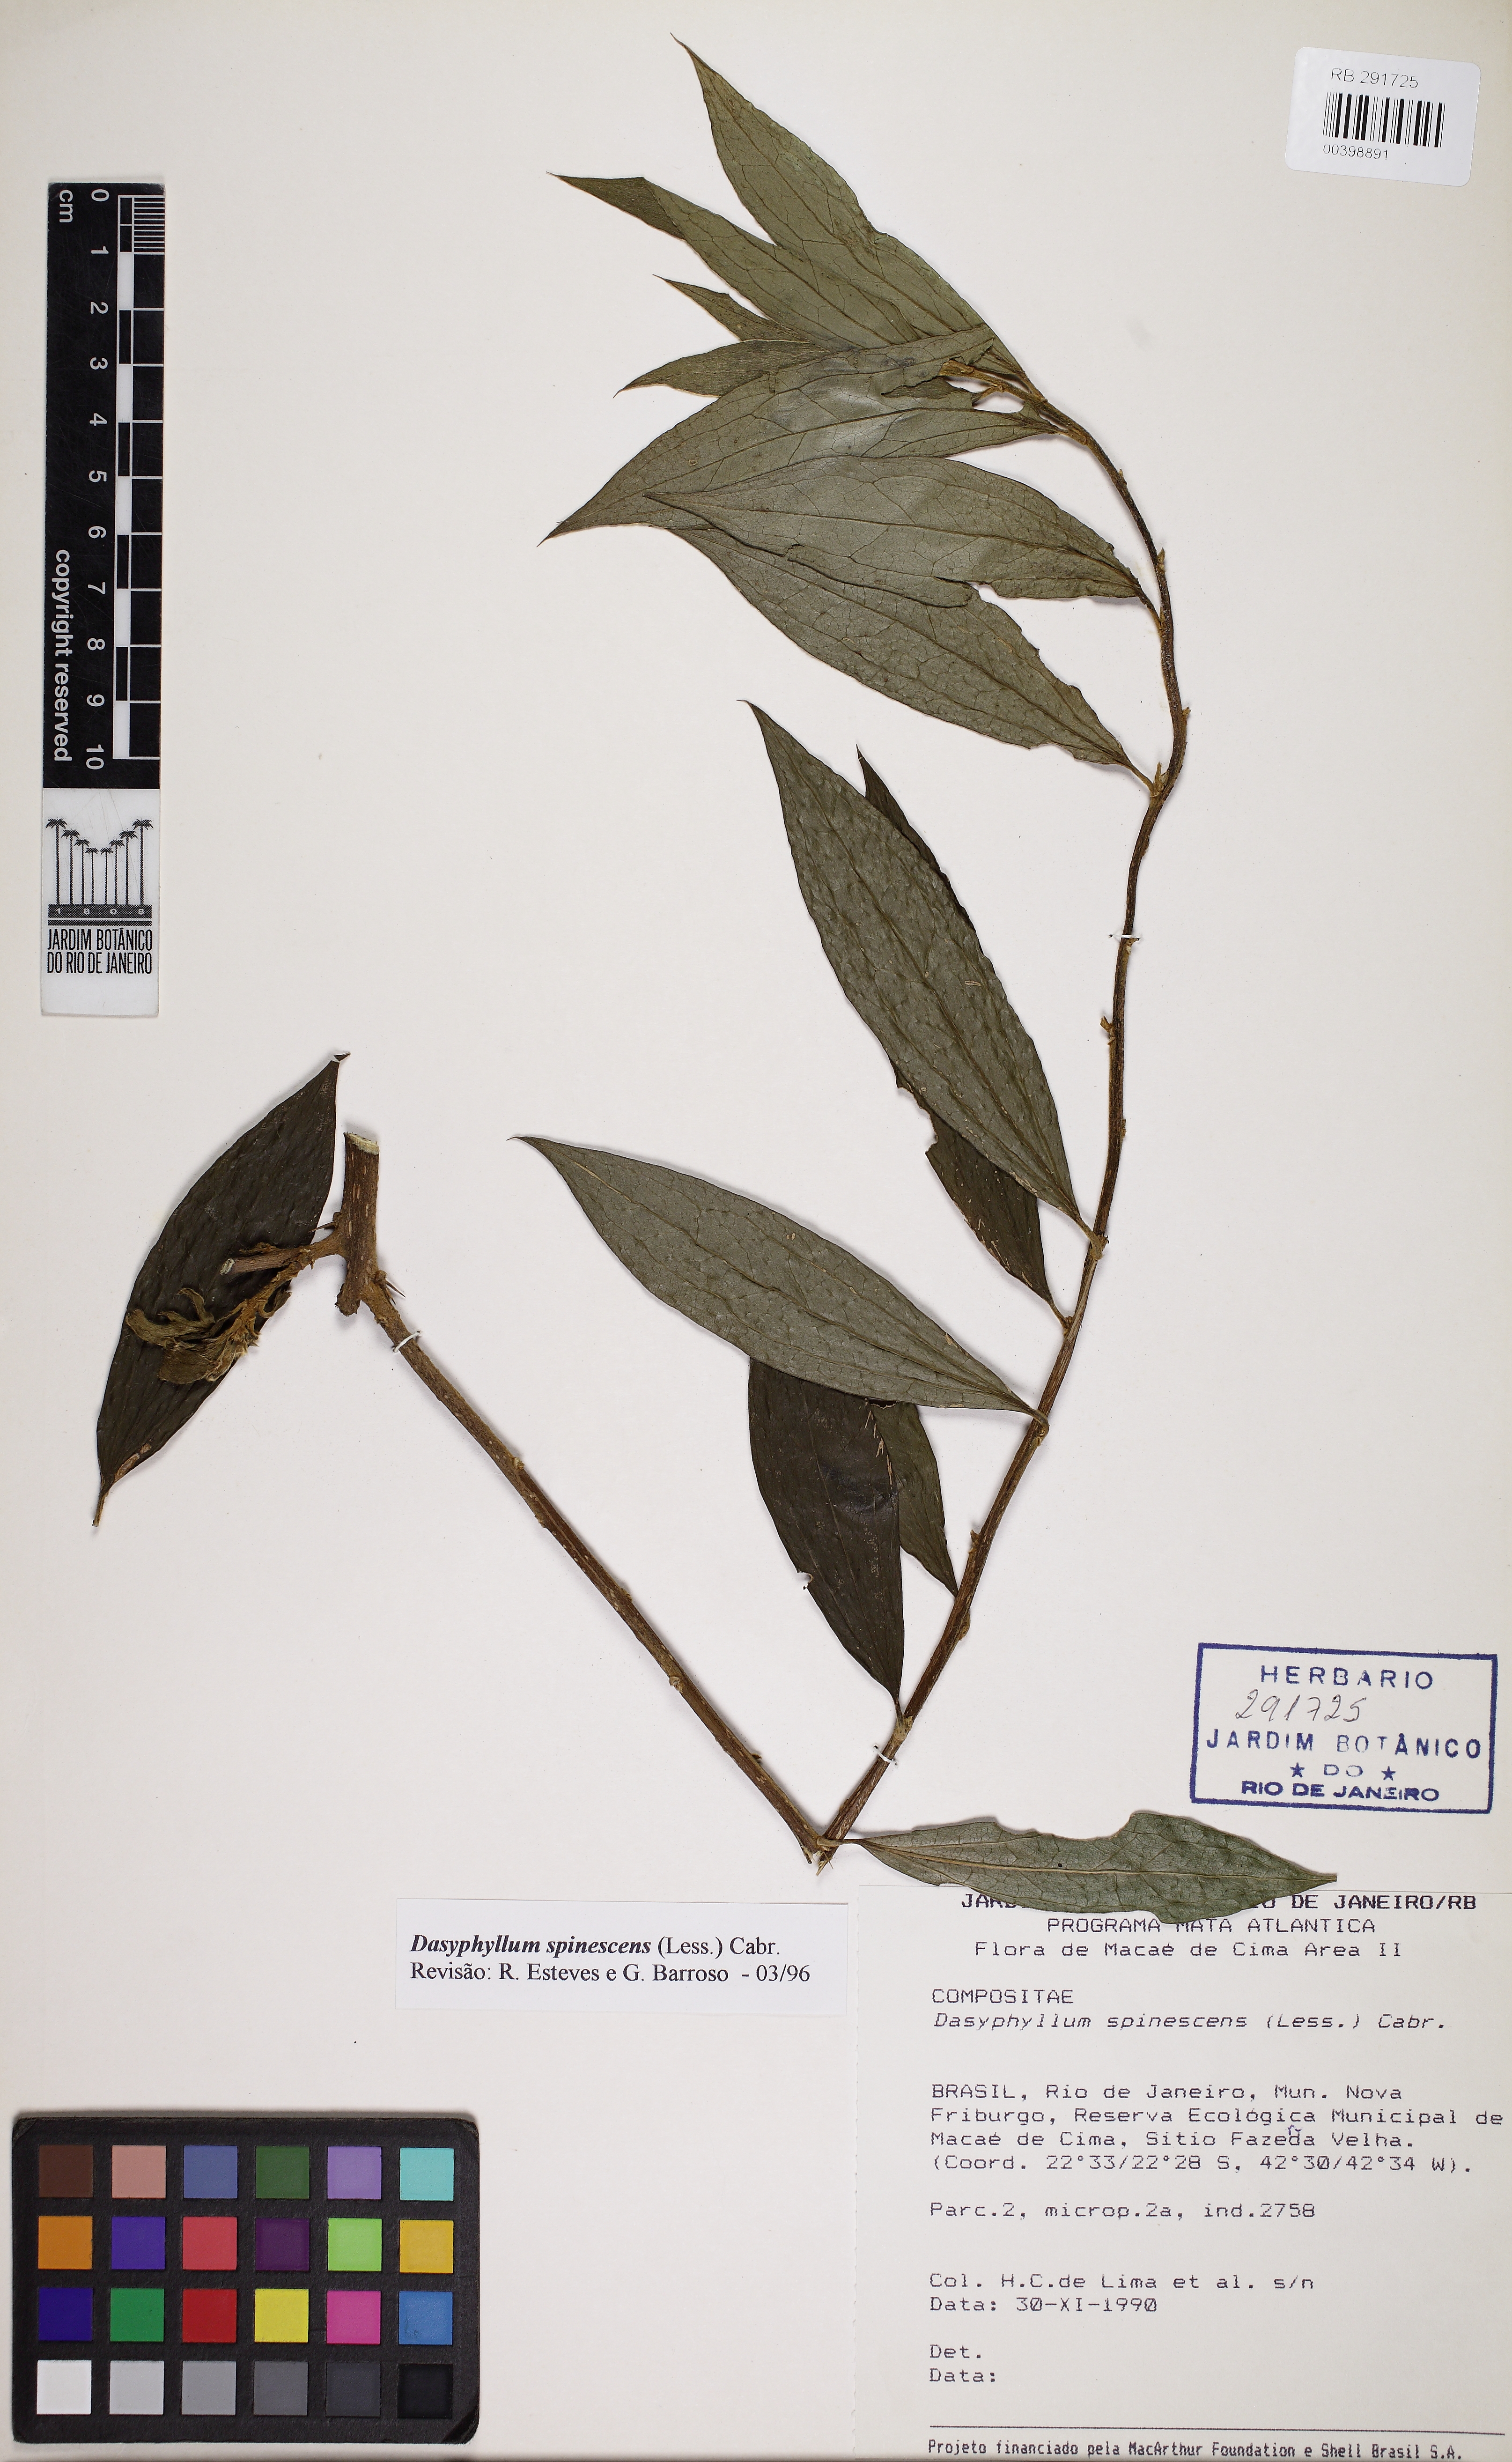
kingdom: Plantae
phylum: Tracheophyta
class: Magnoliopsida
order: Asterales
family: Asteraceae
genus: Dasyphyllum
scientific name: Dasyphyllum spinescens
